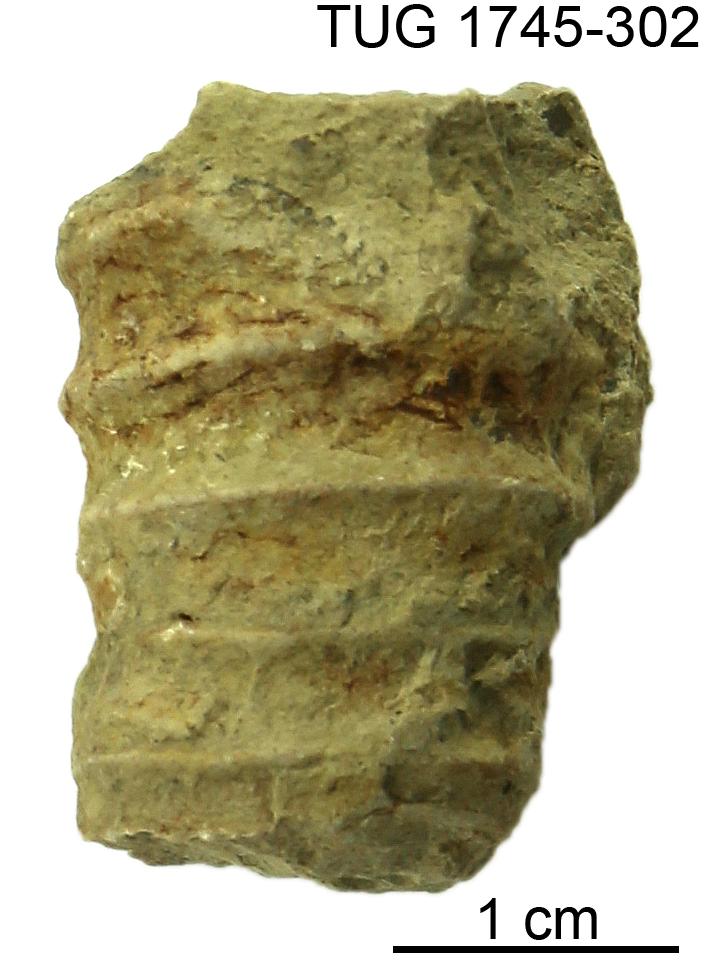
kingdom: Animalia
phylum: Mollusca
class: Cephalopoda
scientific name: Cephalopoda
